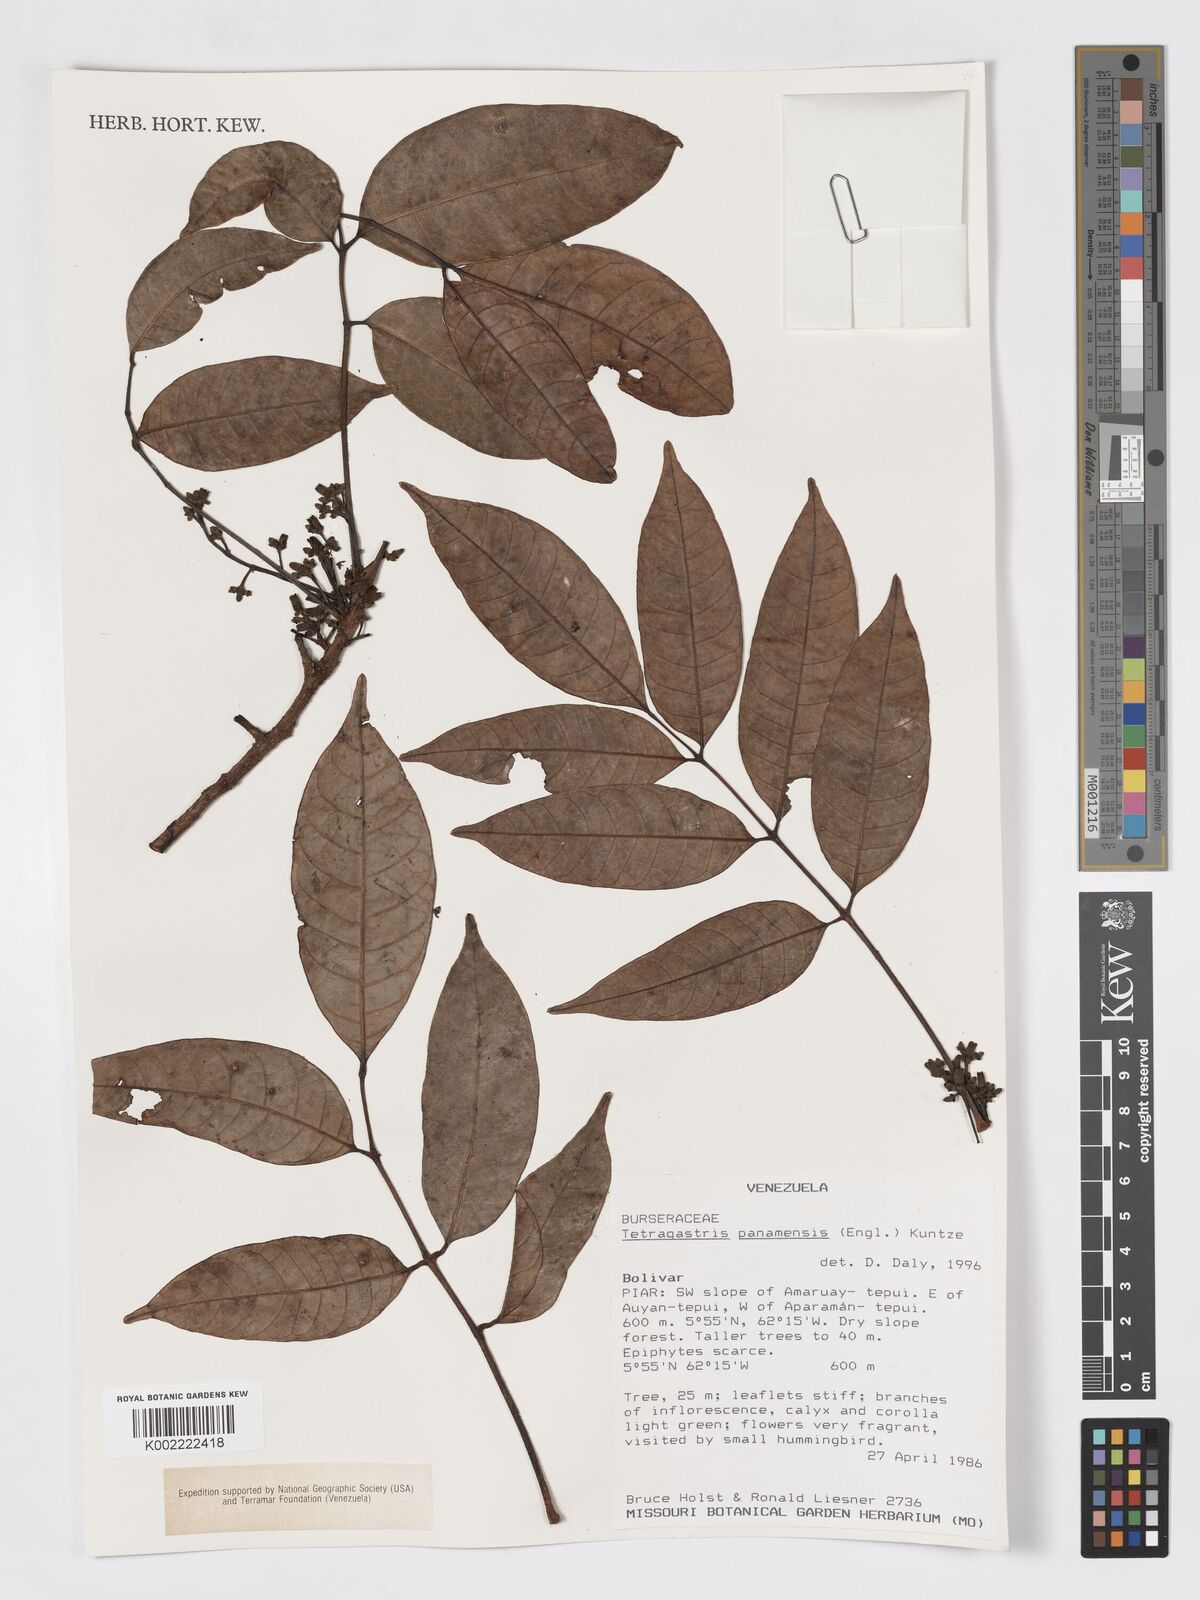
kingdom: Plantae
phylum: Tracheophyta
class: Magnoliopsida
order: Sapindales
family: Burseraceae
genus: Tetragastris
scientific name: Tetragastris panamensis
